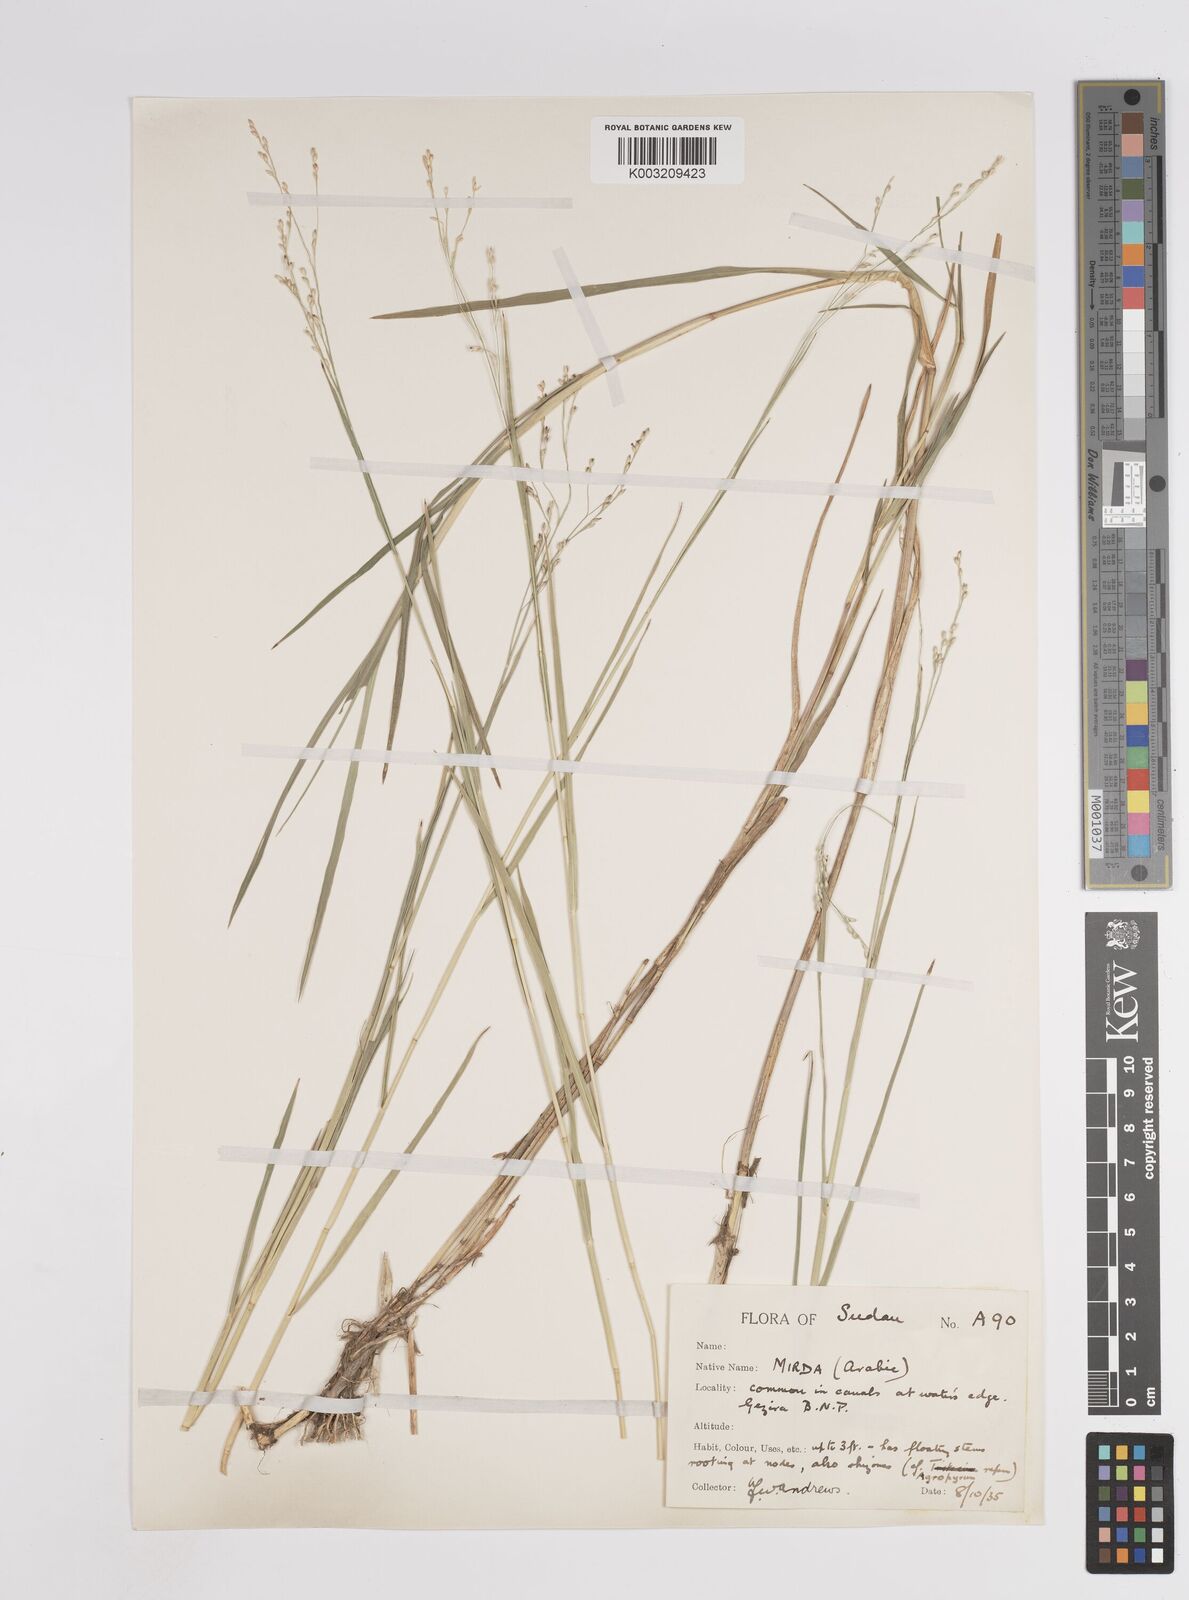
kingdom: Plantae
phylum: Tracheophyta
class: Liliopsida
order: Poales
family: Poaceae
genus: Panicum
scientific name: Panicum repens
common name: Torpedo grass
